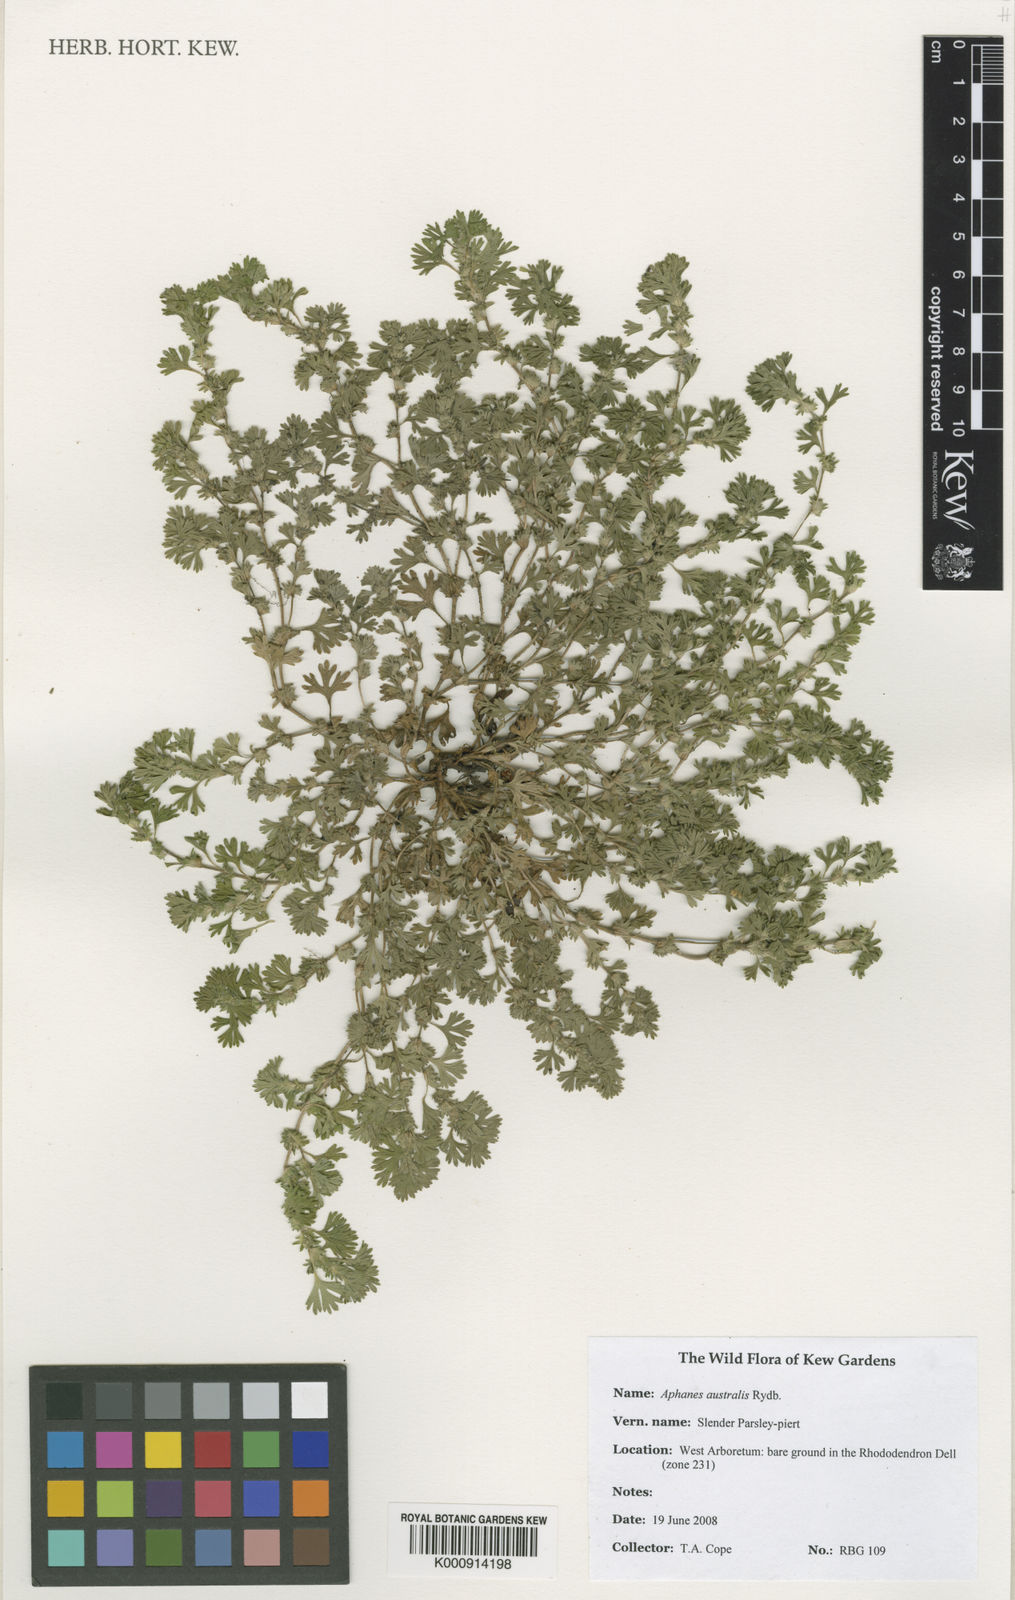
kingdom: Plantae
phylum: Tracheophyta
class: Magnoliopsida
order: Rosales
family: Rosaceae
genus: Aphanes
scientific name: Aphanes australis
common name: Slender parsley-piert
